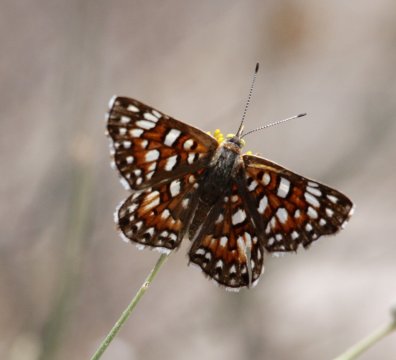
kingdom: Animalia
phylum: Arthropoda
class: Insecta
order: Lepidoptera
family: Riodinidae
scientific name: Riodinidae
